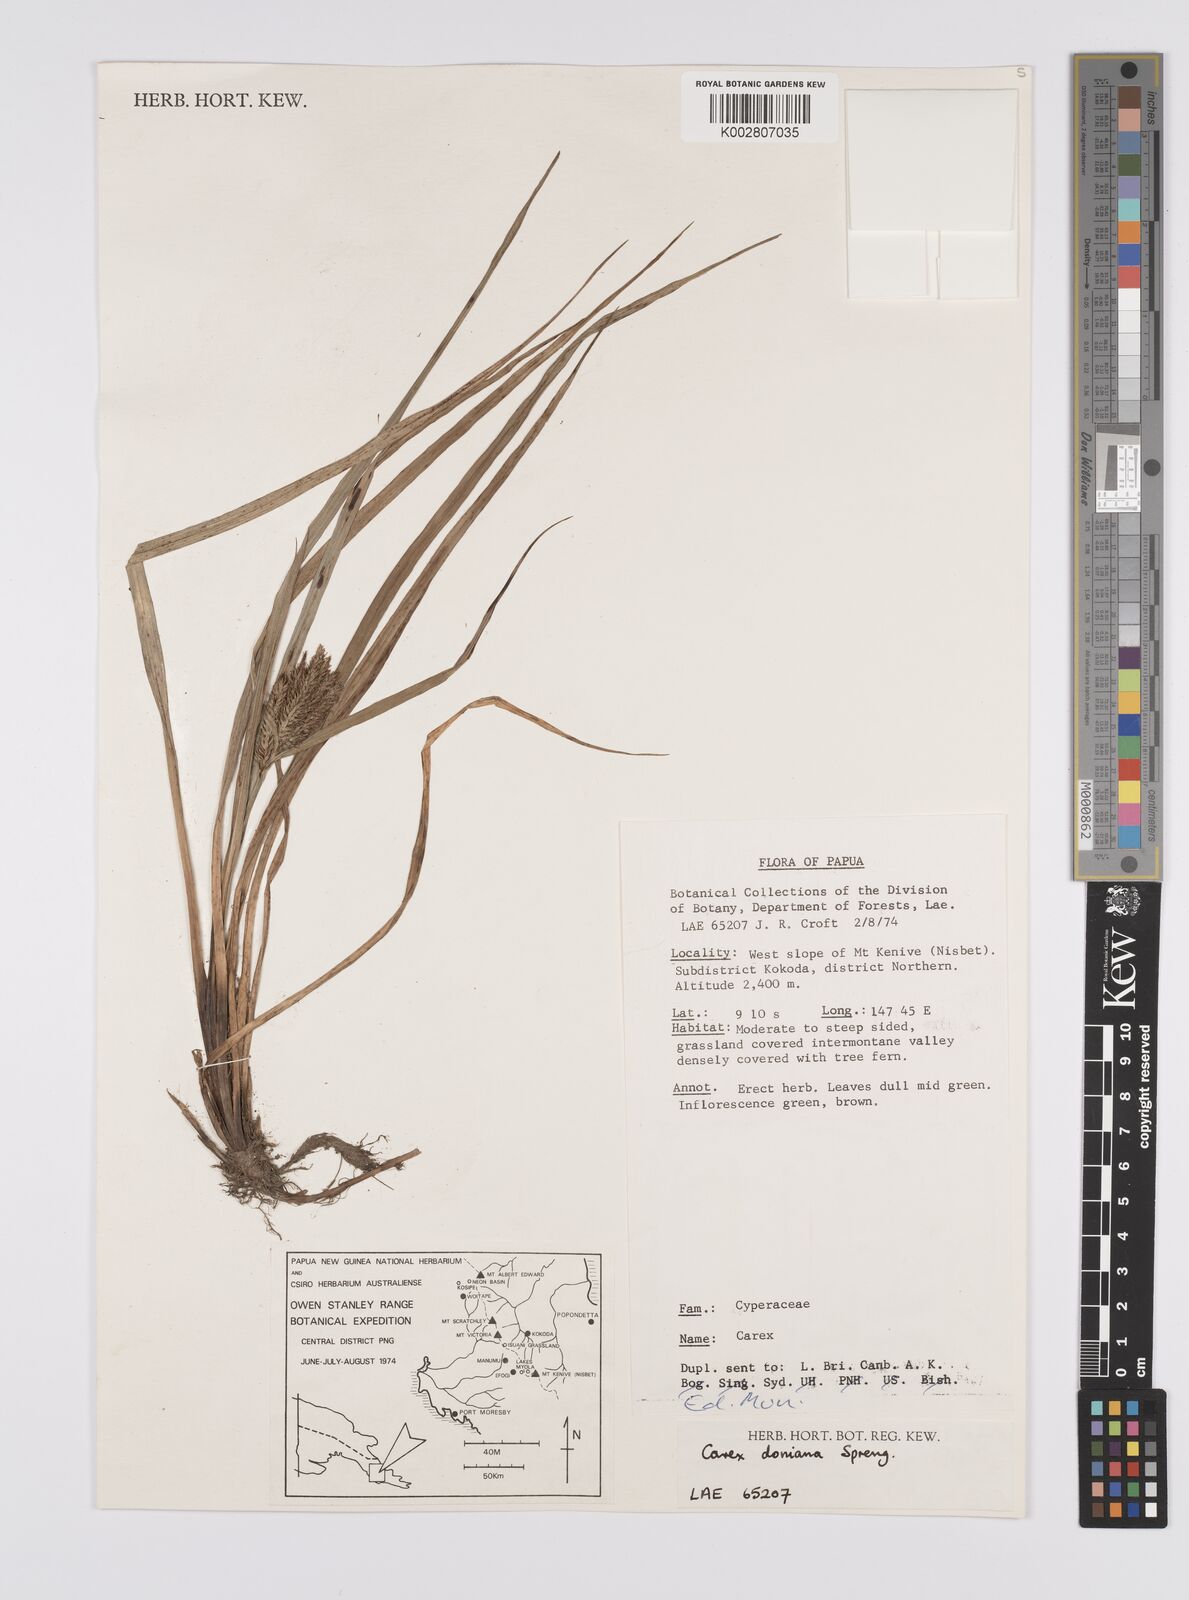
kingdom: Plantae
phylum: Tracheophyta
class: Liliopsida
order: Poales
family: Cyperaceae
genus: Carex
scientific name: Carex alopecuroides
